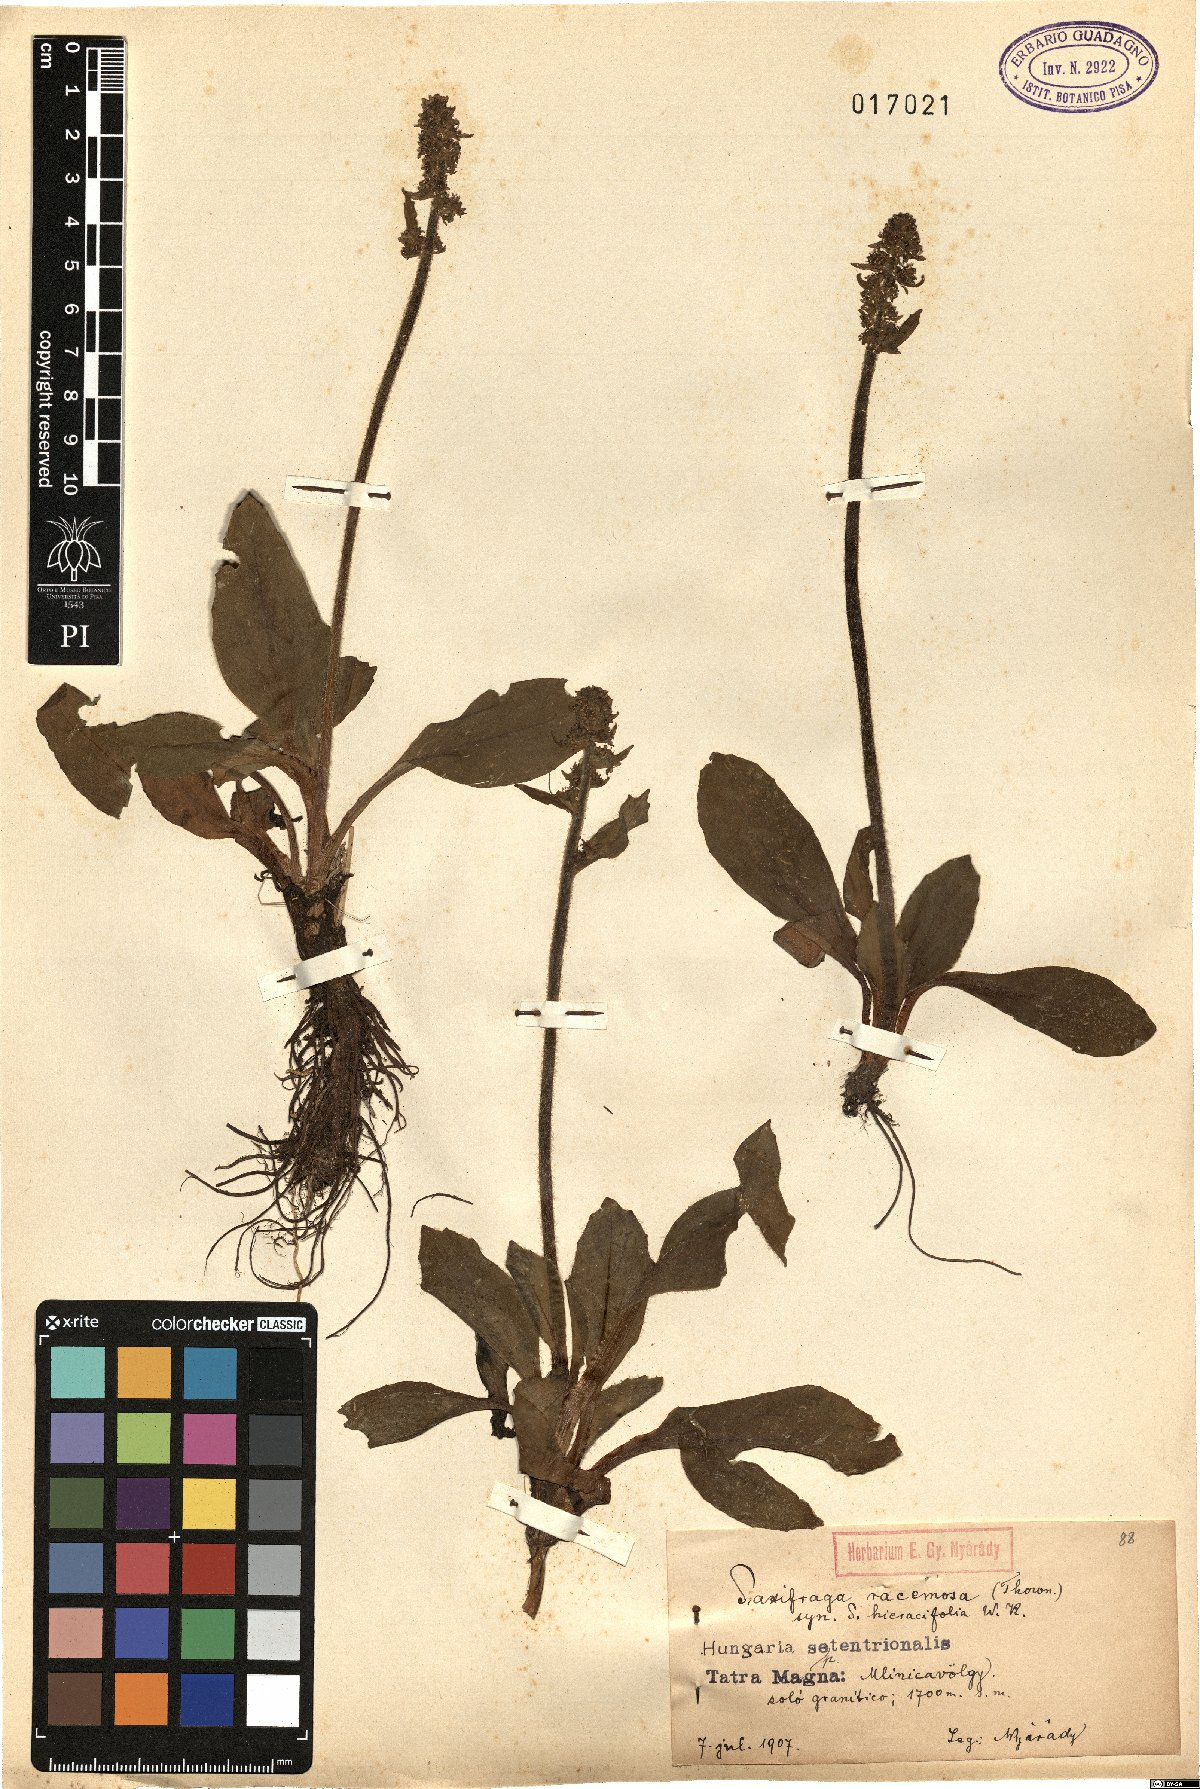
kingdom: Plantae
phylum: Tracheophyta
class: Magnoliopsida
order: Saxifragales
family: Saxifragaceae
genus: Micranthes
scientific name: Micranthes hieraciifolia
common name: Hawkweed-leaved saxifrage
